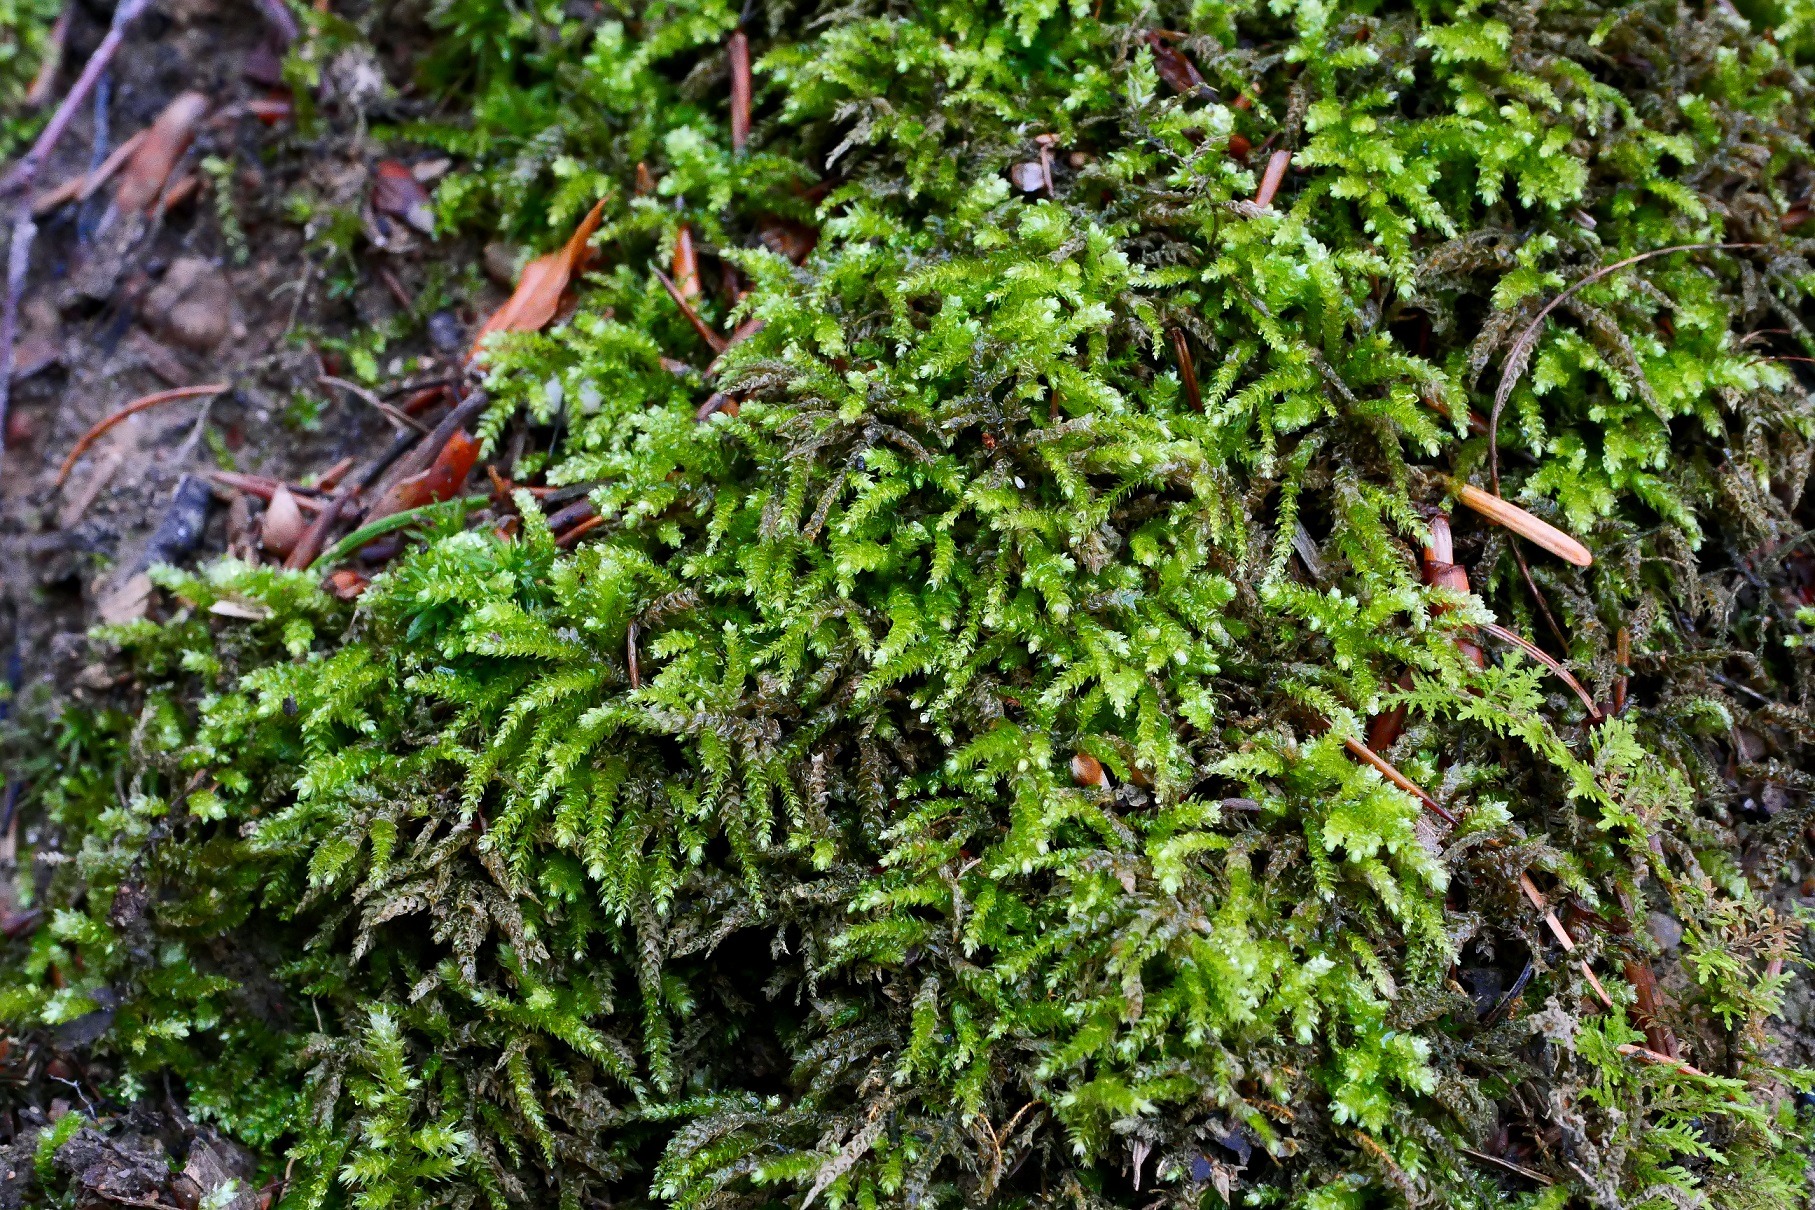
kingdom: Plantae
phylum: Bryophyta
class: Bryopsida
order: Hypnales
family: Brachytheciaceae
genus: Eurhynchium
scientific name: Eurhynchium angustirete
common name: Stor næbmos
